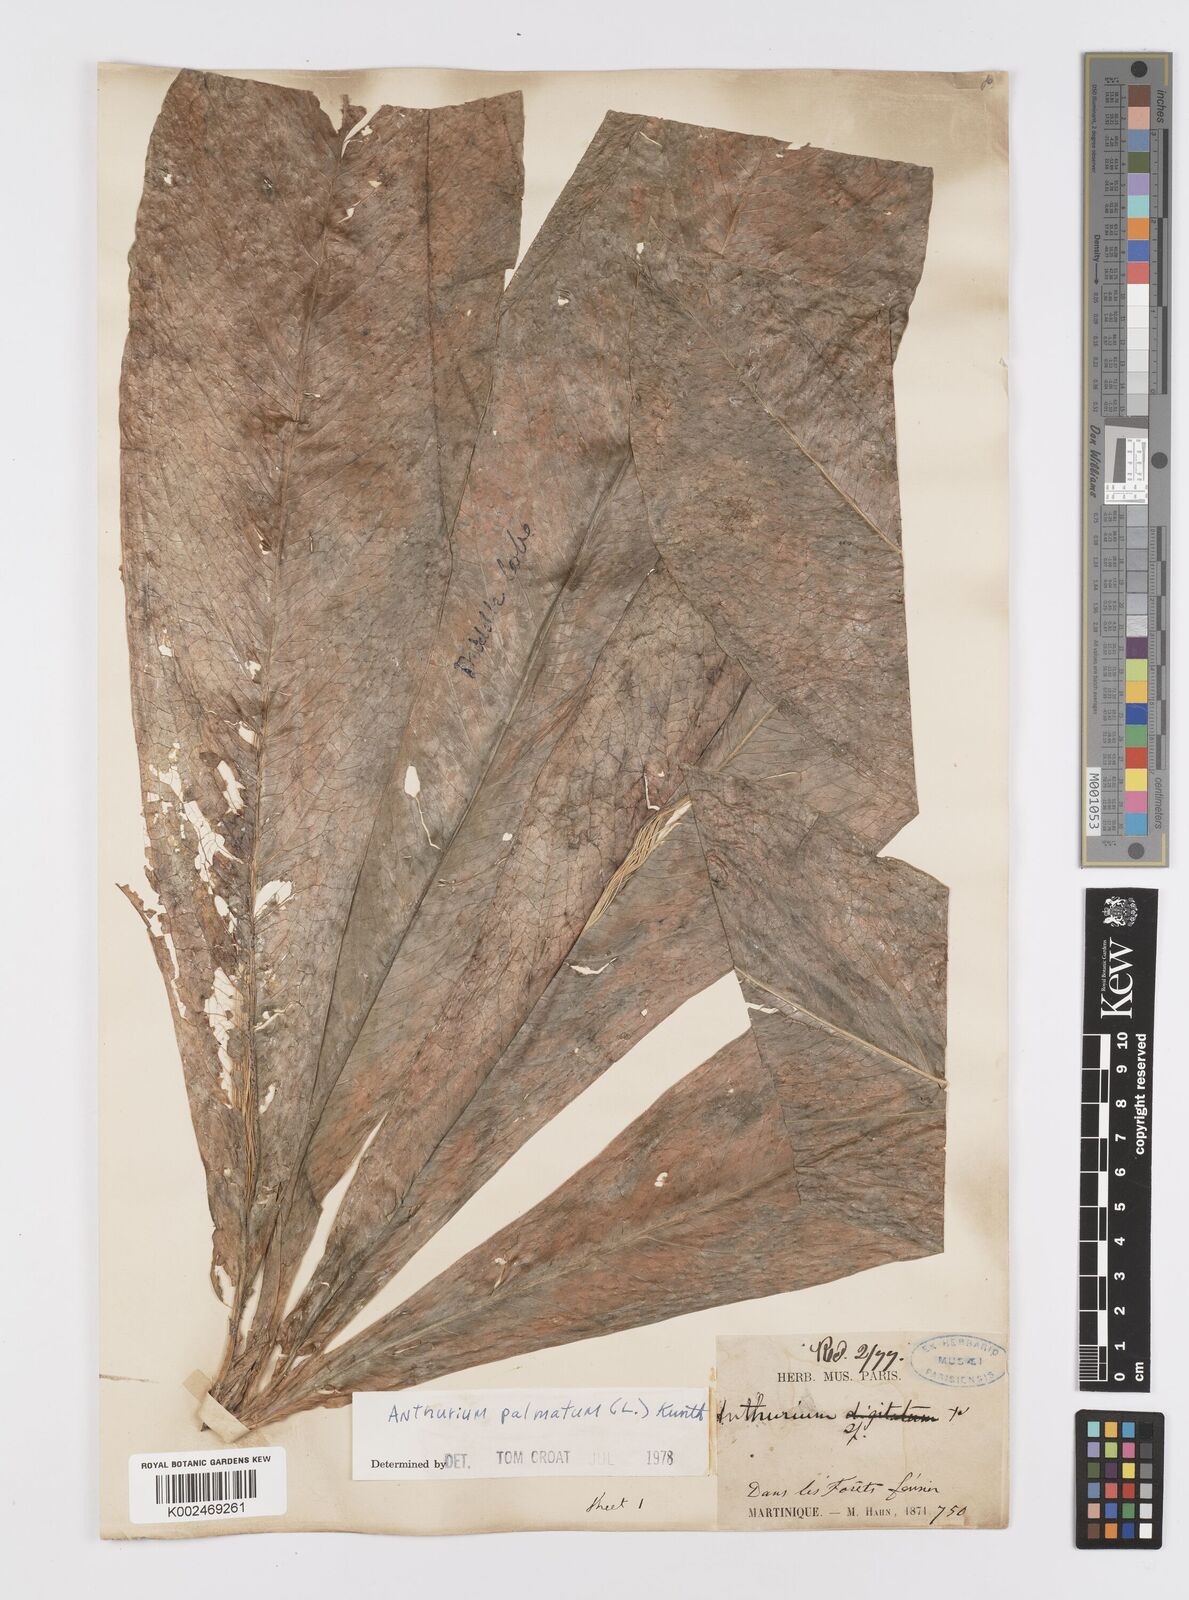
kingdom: Plantae
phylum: Tracheophyta
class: Liliopsida
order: Alismatales
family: Araceae
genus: Anthurium
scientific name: Anthurium palmatum
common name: Mibi
